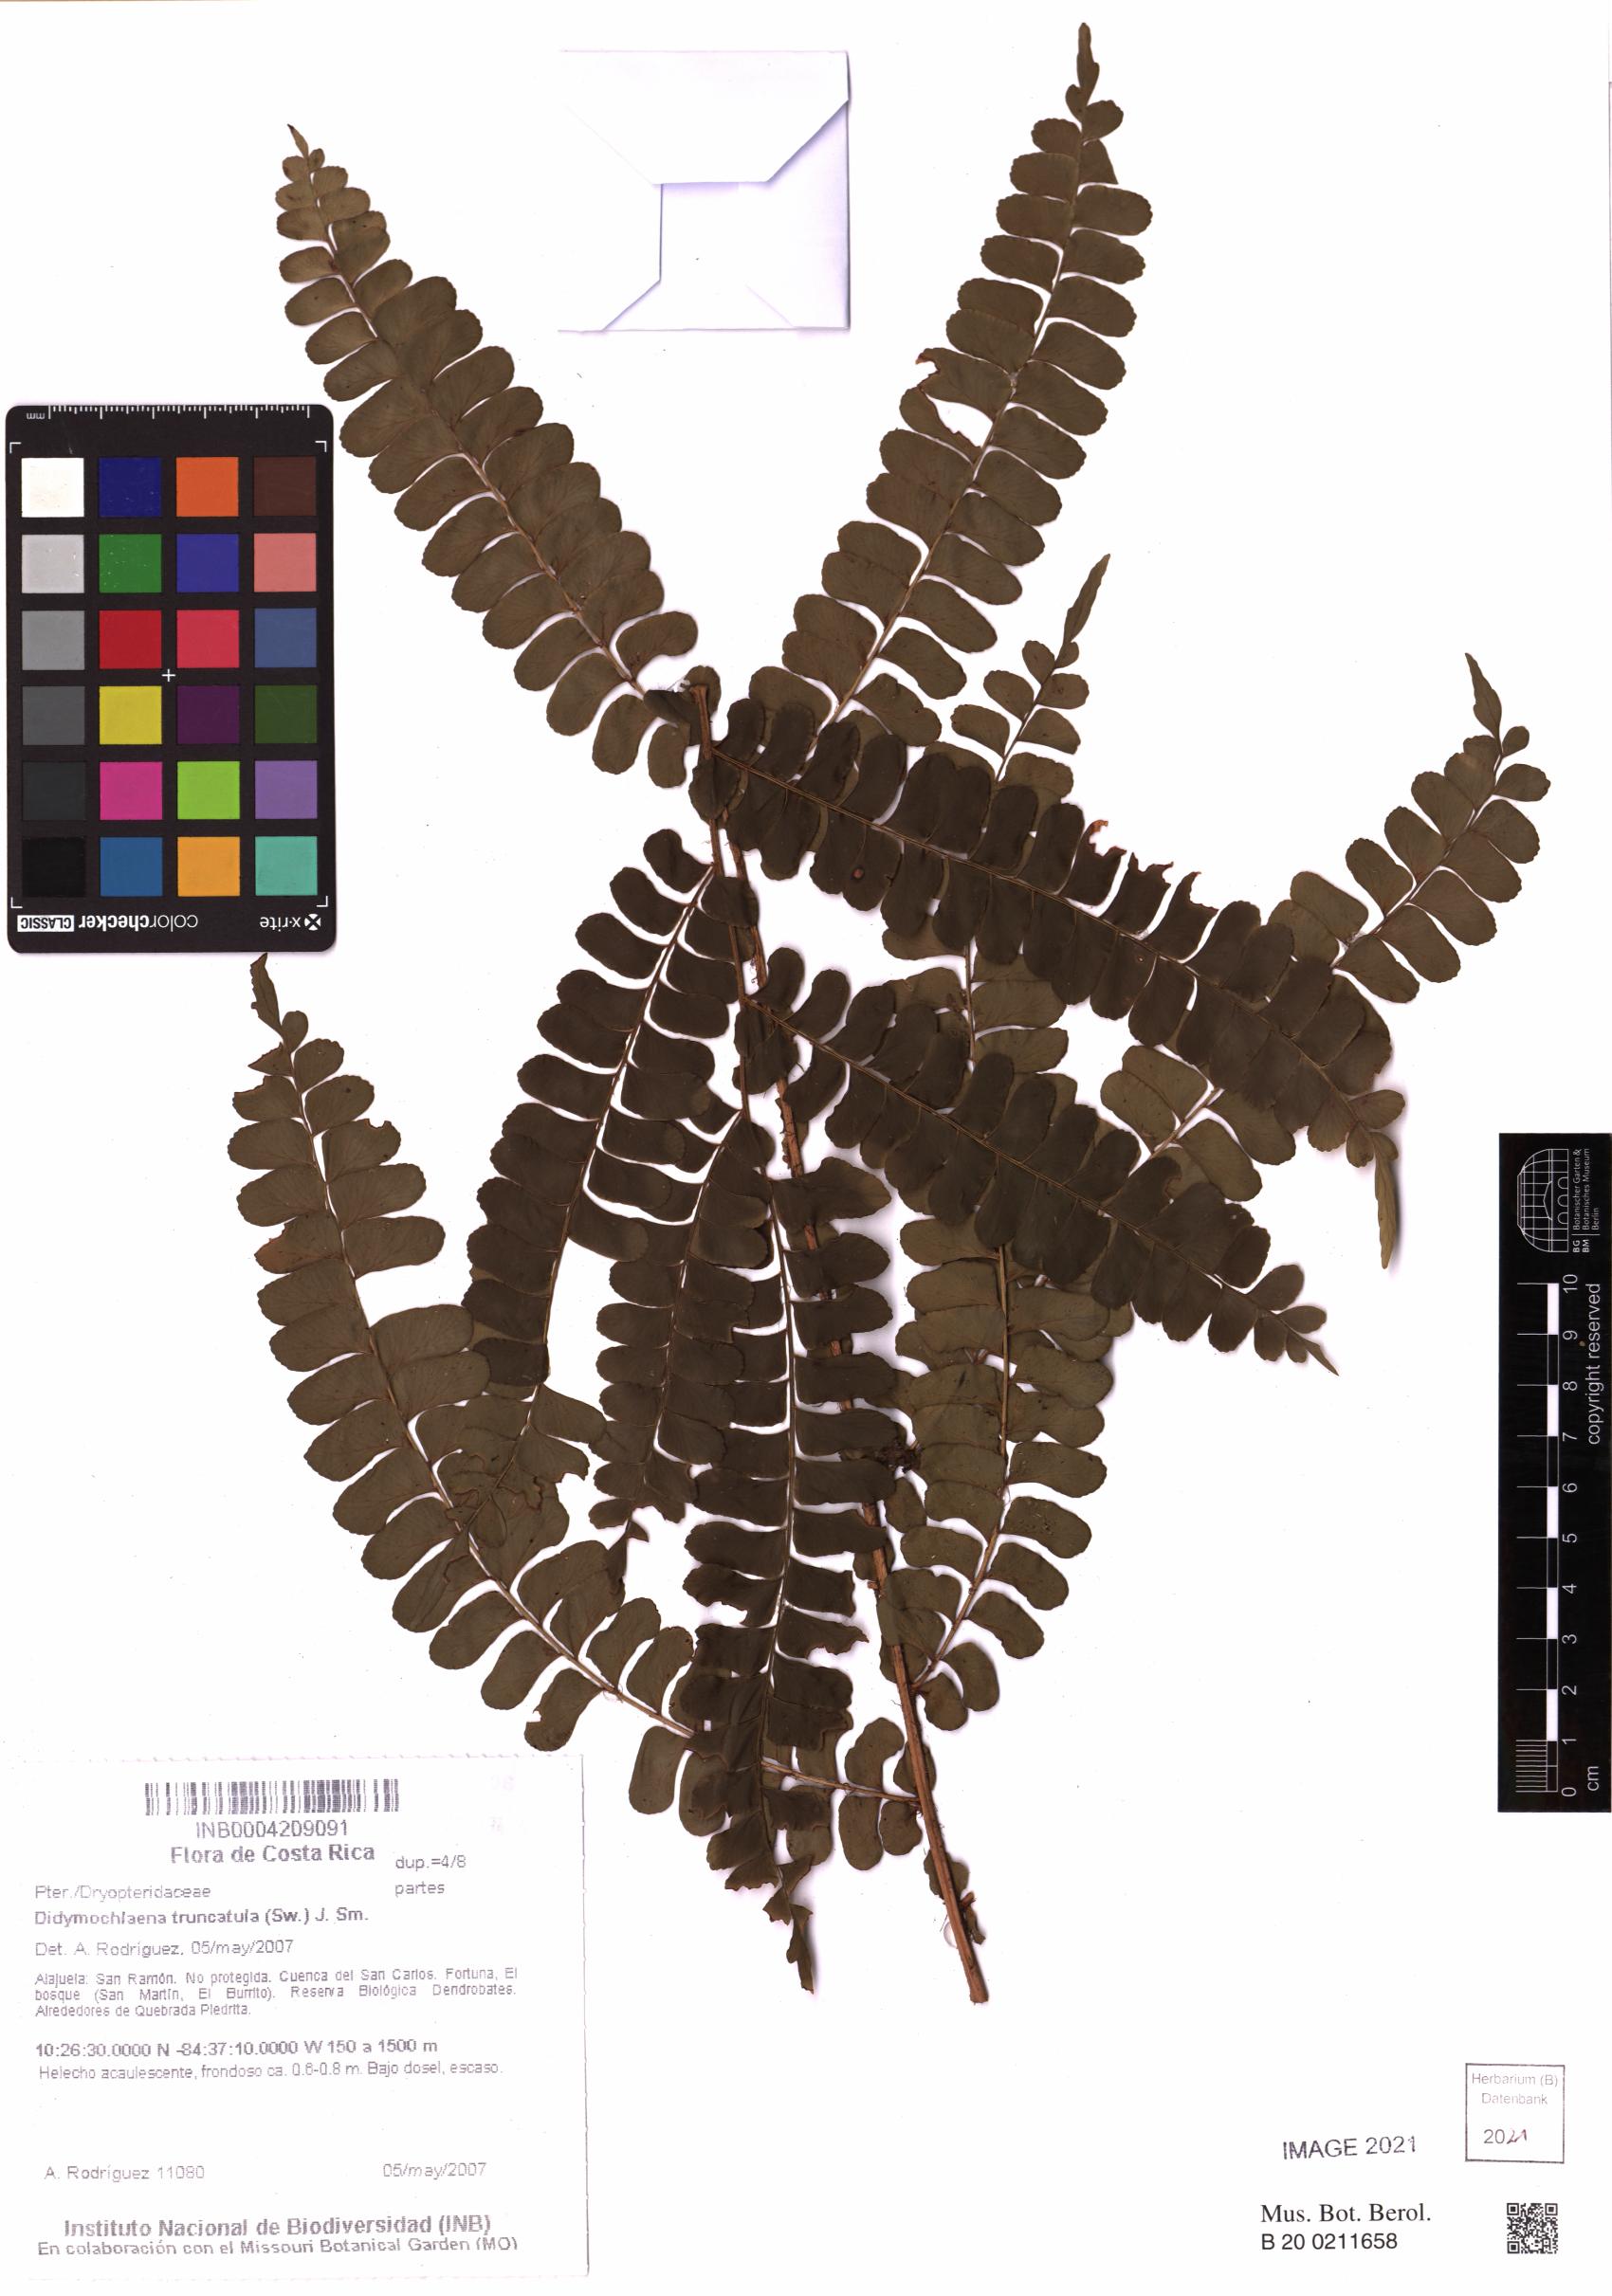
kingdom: Plantae
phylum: Tracheophyta
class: Polypodiopsida
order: Polypodiales
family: Didymochlaenaceae
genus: Didymochlaena
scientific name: Didymochlaena truncatula
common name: Mahogany fern
